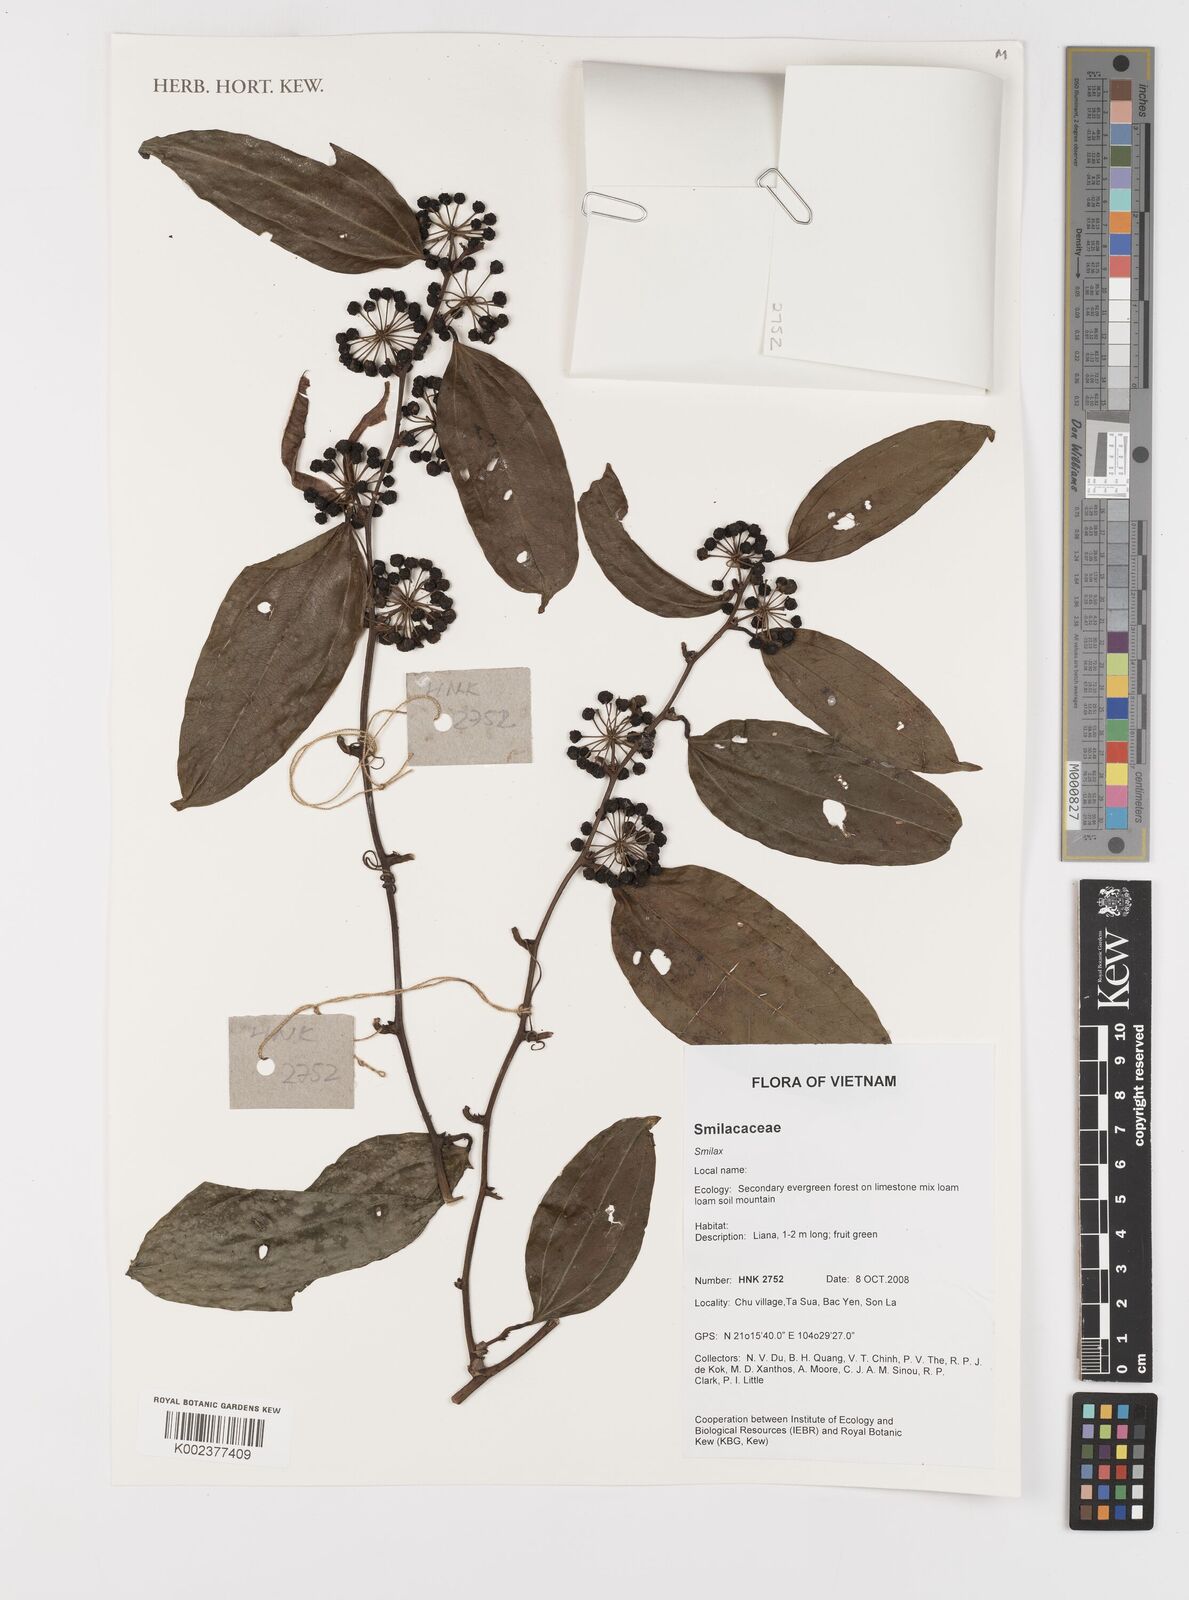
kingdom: Plantae
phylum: Tracheophyta
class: Liliopsida
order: Liliales
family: Smilacaceae
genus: Smilax
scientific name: Smilax
